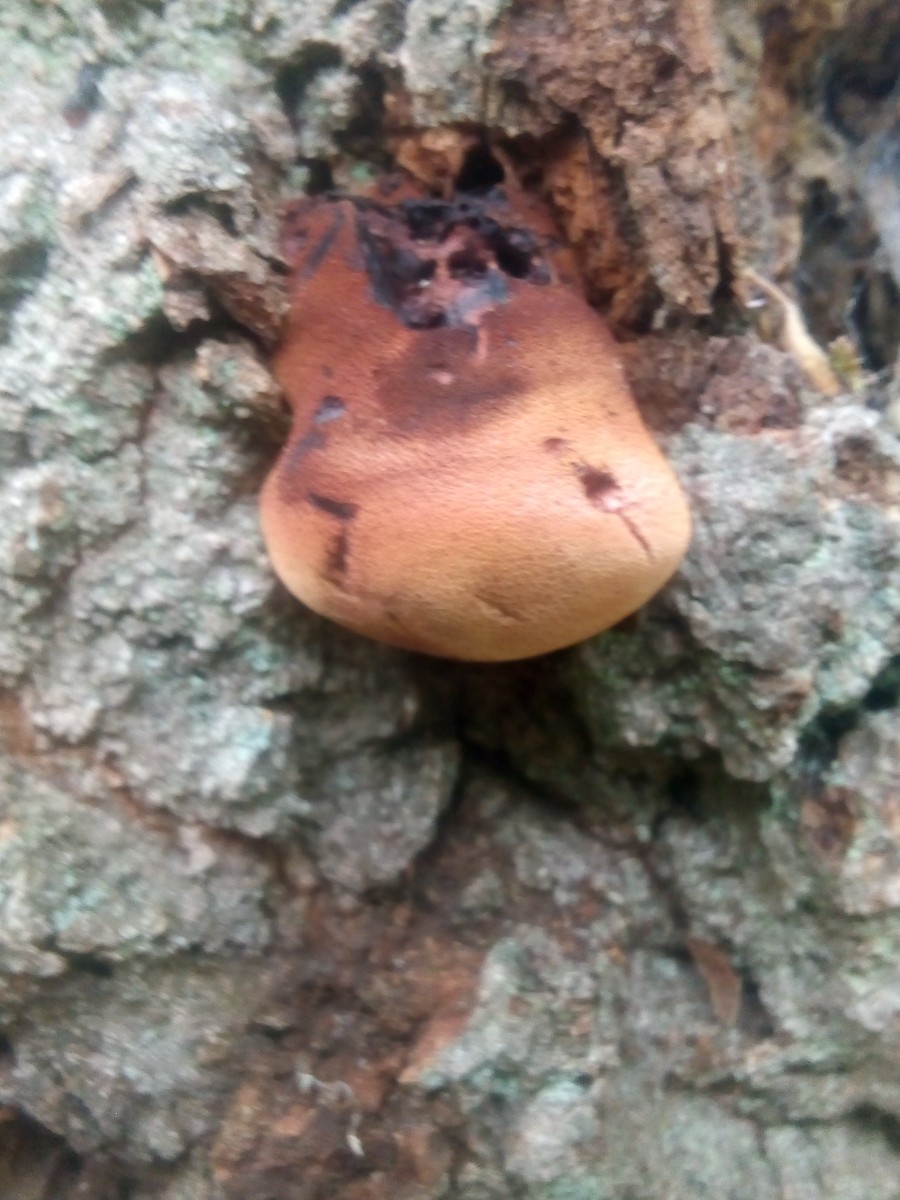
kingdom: Fungi
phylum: Basidiomycota
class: Agaricomycetes
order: Agaricales
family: Fistulinaceae
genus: Fistulina
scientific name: Fistulina hepatica
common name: oksetunge
